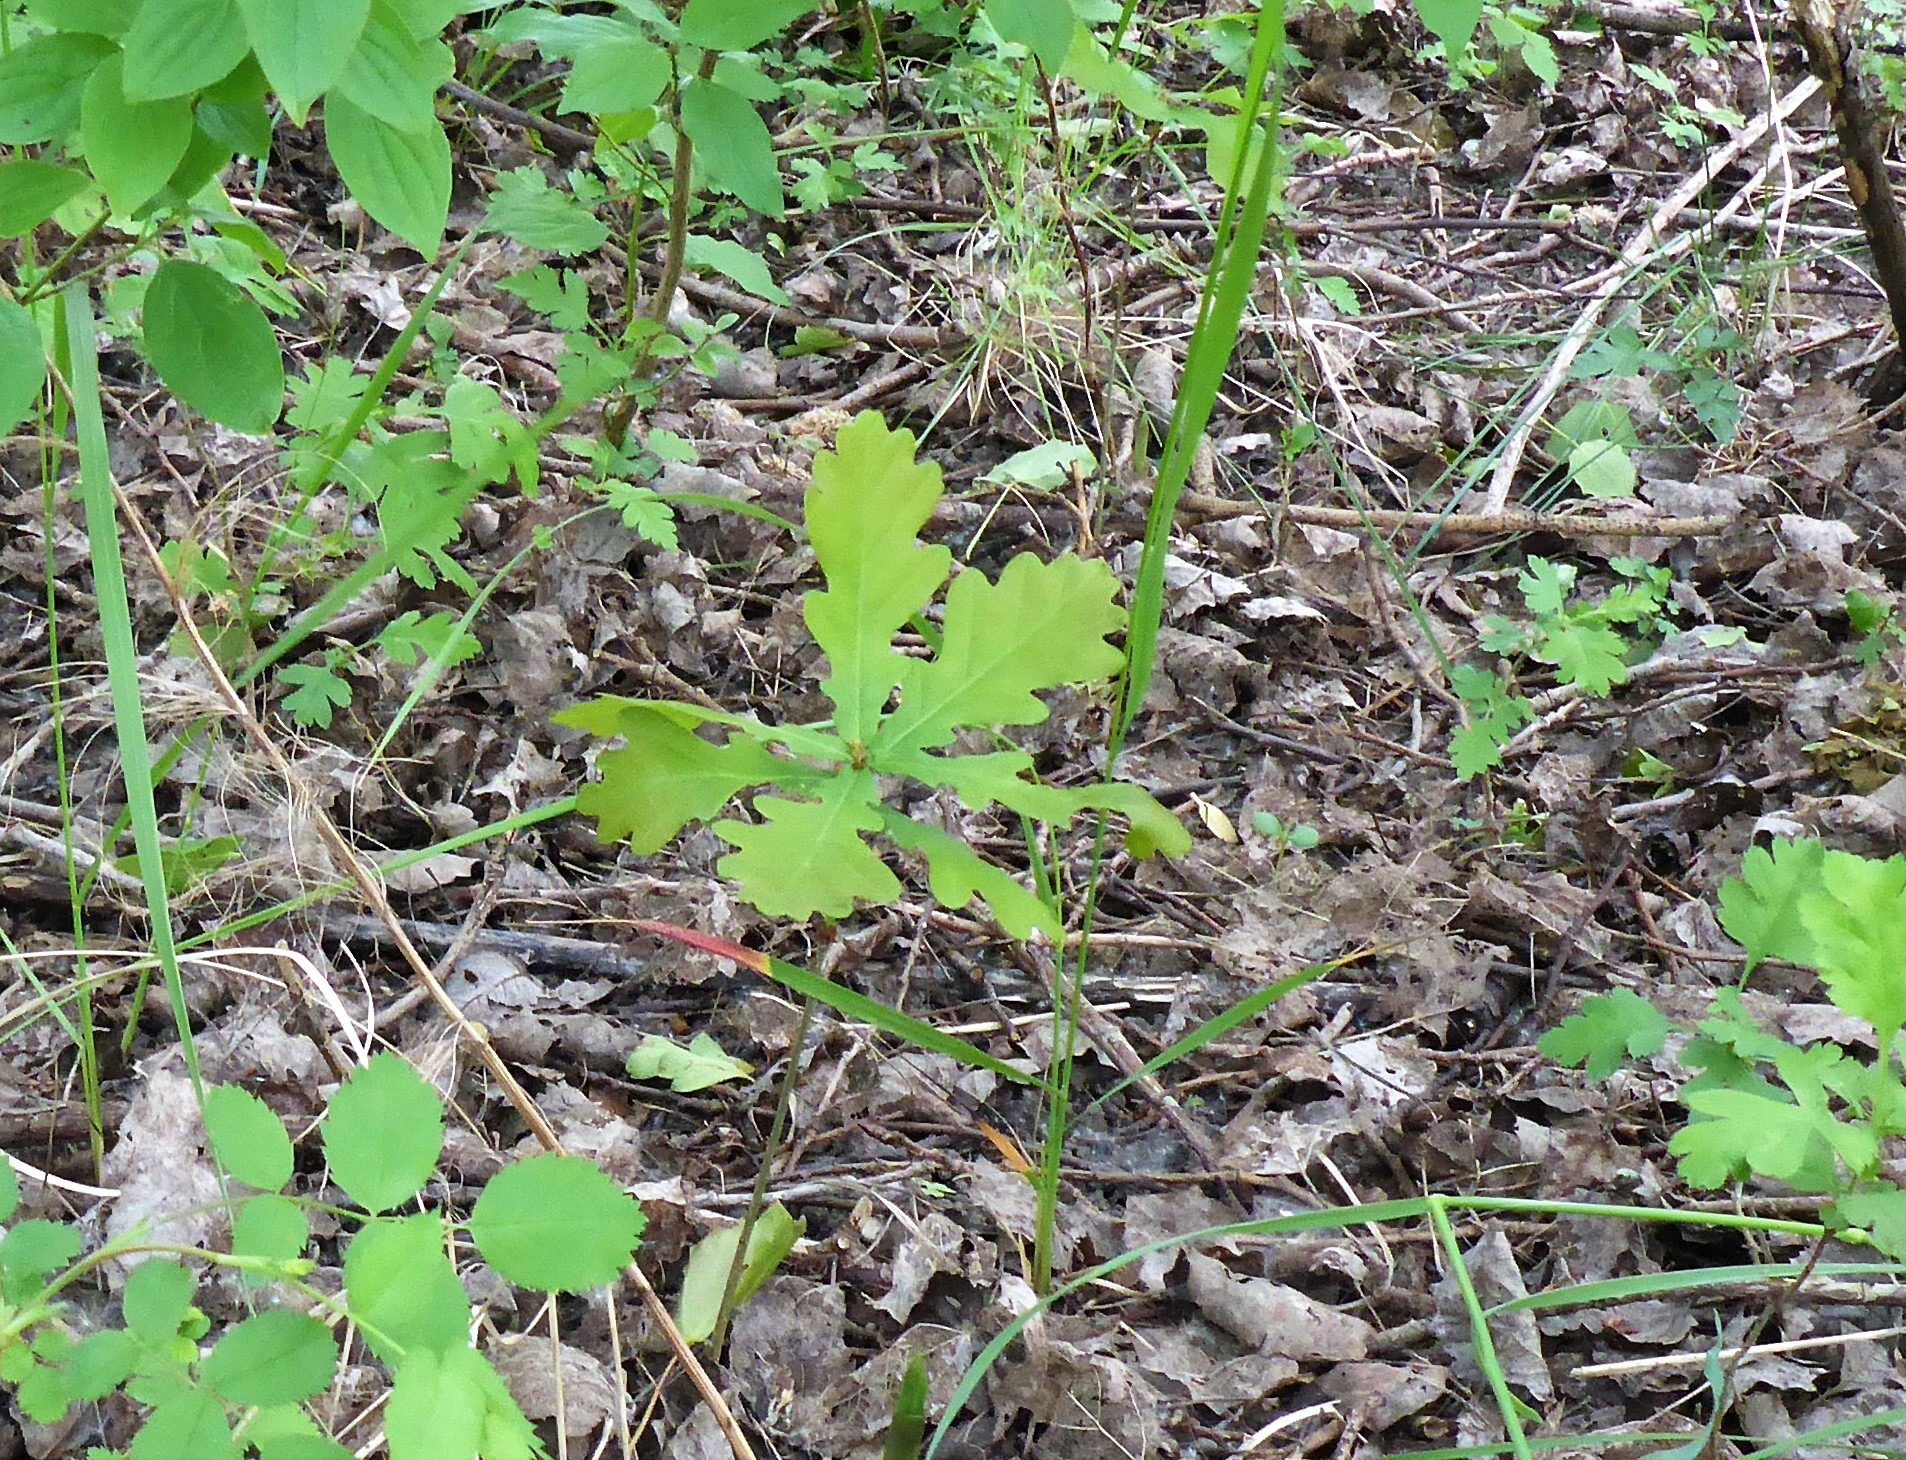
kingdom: Plantae
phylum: Tracheophyta
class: Magnoliopsida
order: Fagales
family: Fagaceae
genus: Quercus
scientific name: Quercus robur
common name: Stilk-eg/almindelig eg
